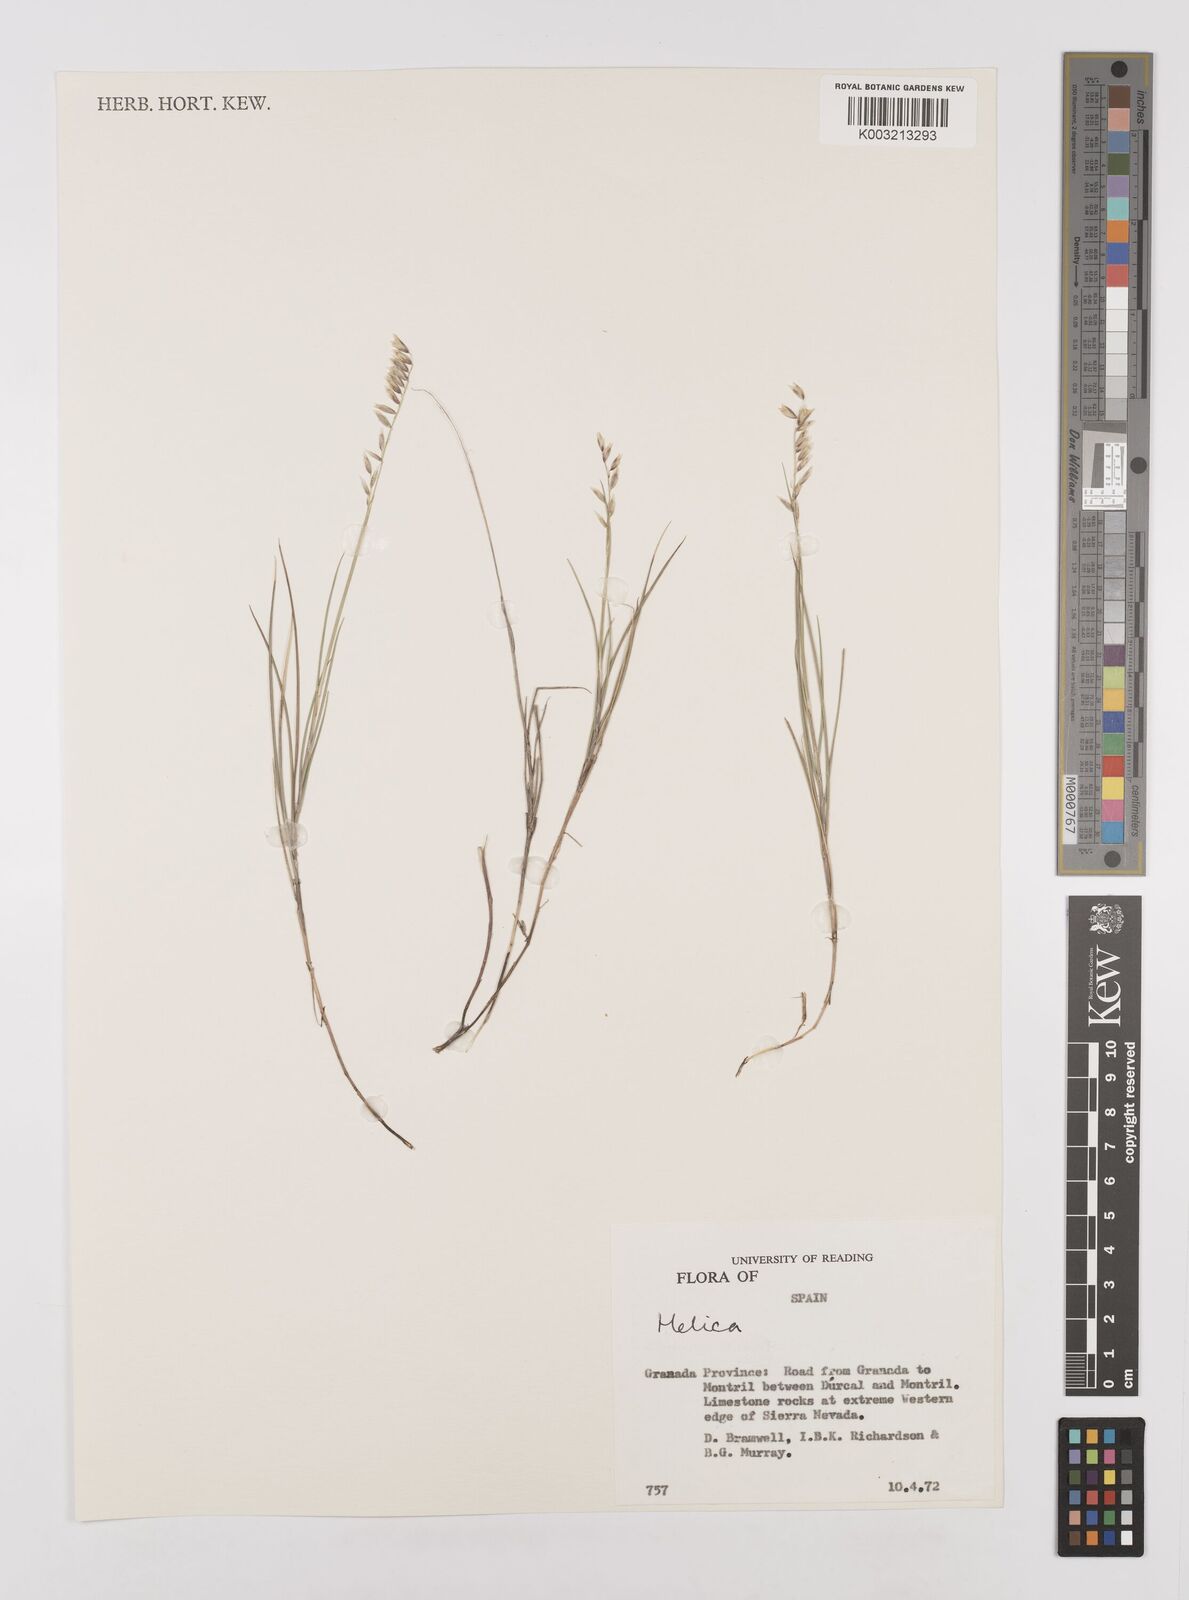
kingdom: Plantae
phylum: Tracheophyta
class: Liliopsida
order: Poales
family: Poaceae
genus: Melica
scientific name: Melica
